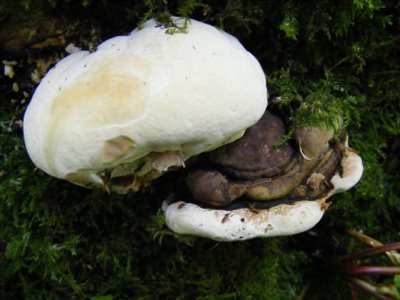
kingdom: Fungi
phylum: Basidiomycota
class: Agaricomycetes
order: Polyporales
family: Polyporaceae
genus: Ganoderma
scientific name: Ganoderma applanatum
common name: flad lakporesvamp
